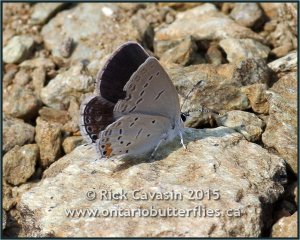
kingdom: Animalia
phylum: Arthropoda
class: Insecta
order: Lepidoptera
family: Lycaenidae
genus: Elkalyce
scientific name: Elkalyce comyntas
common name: Eastern Tailed-Blue
